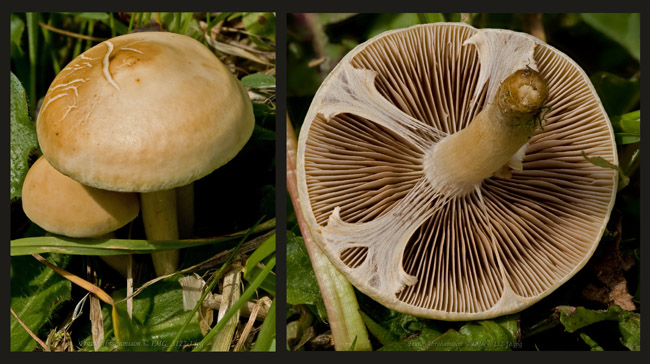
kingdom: Fungi
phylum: Basidiomycota
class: Agaricomycetes
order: Agaricales
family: Strophariaceae
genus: Agrocybe
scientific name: Agrocybe praecox
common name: tidlig agerhat
